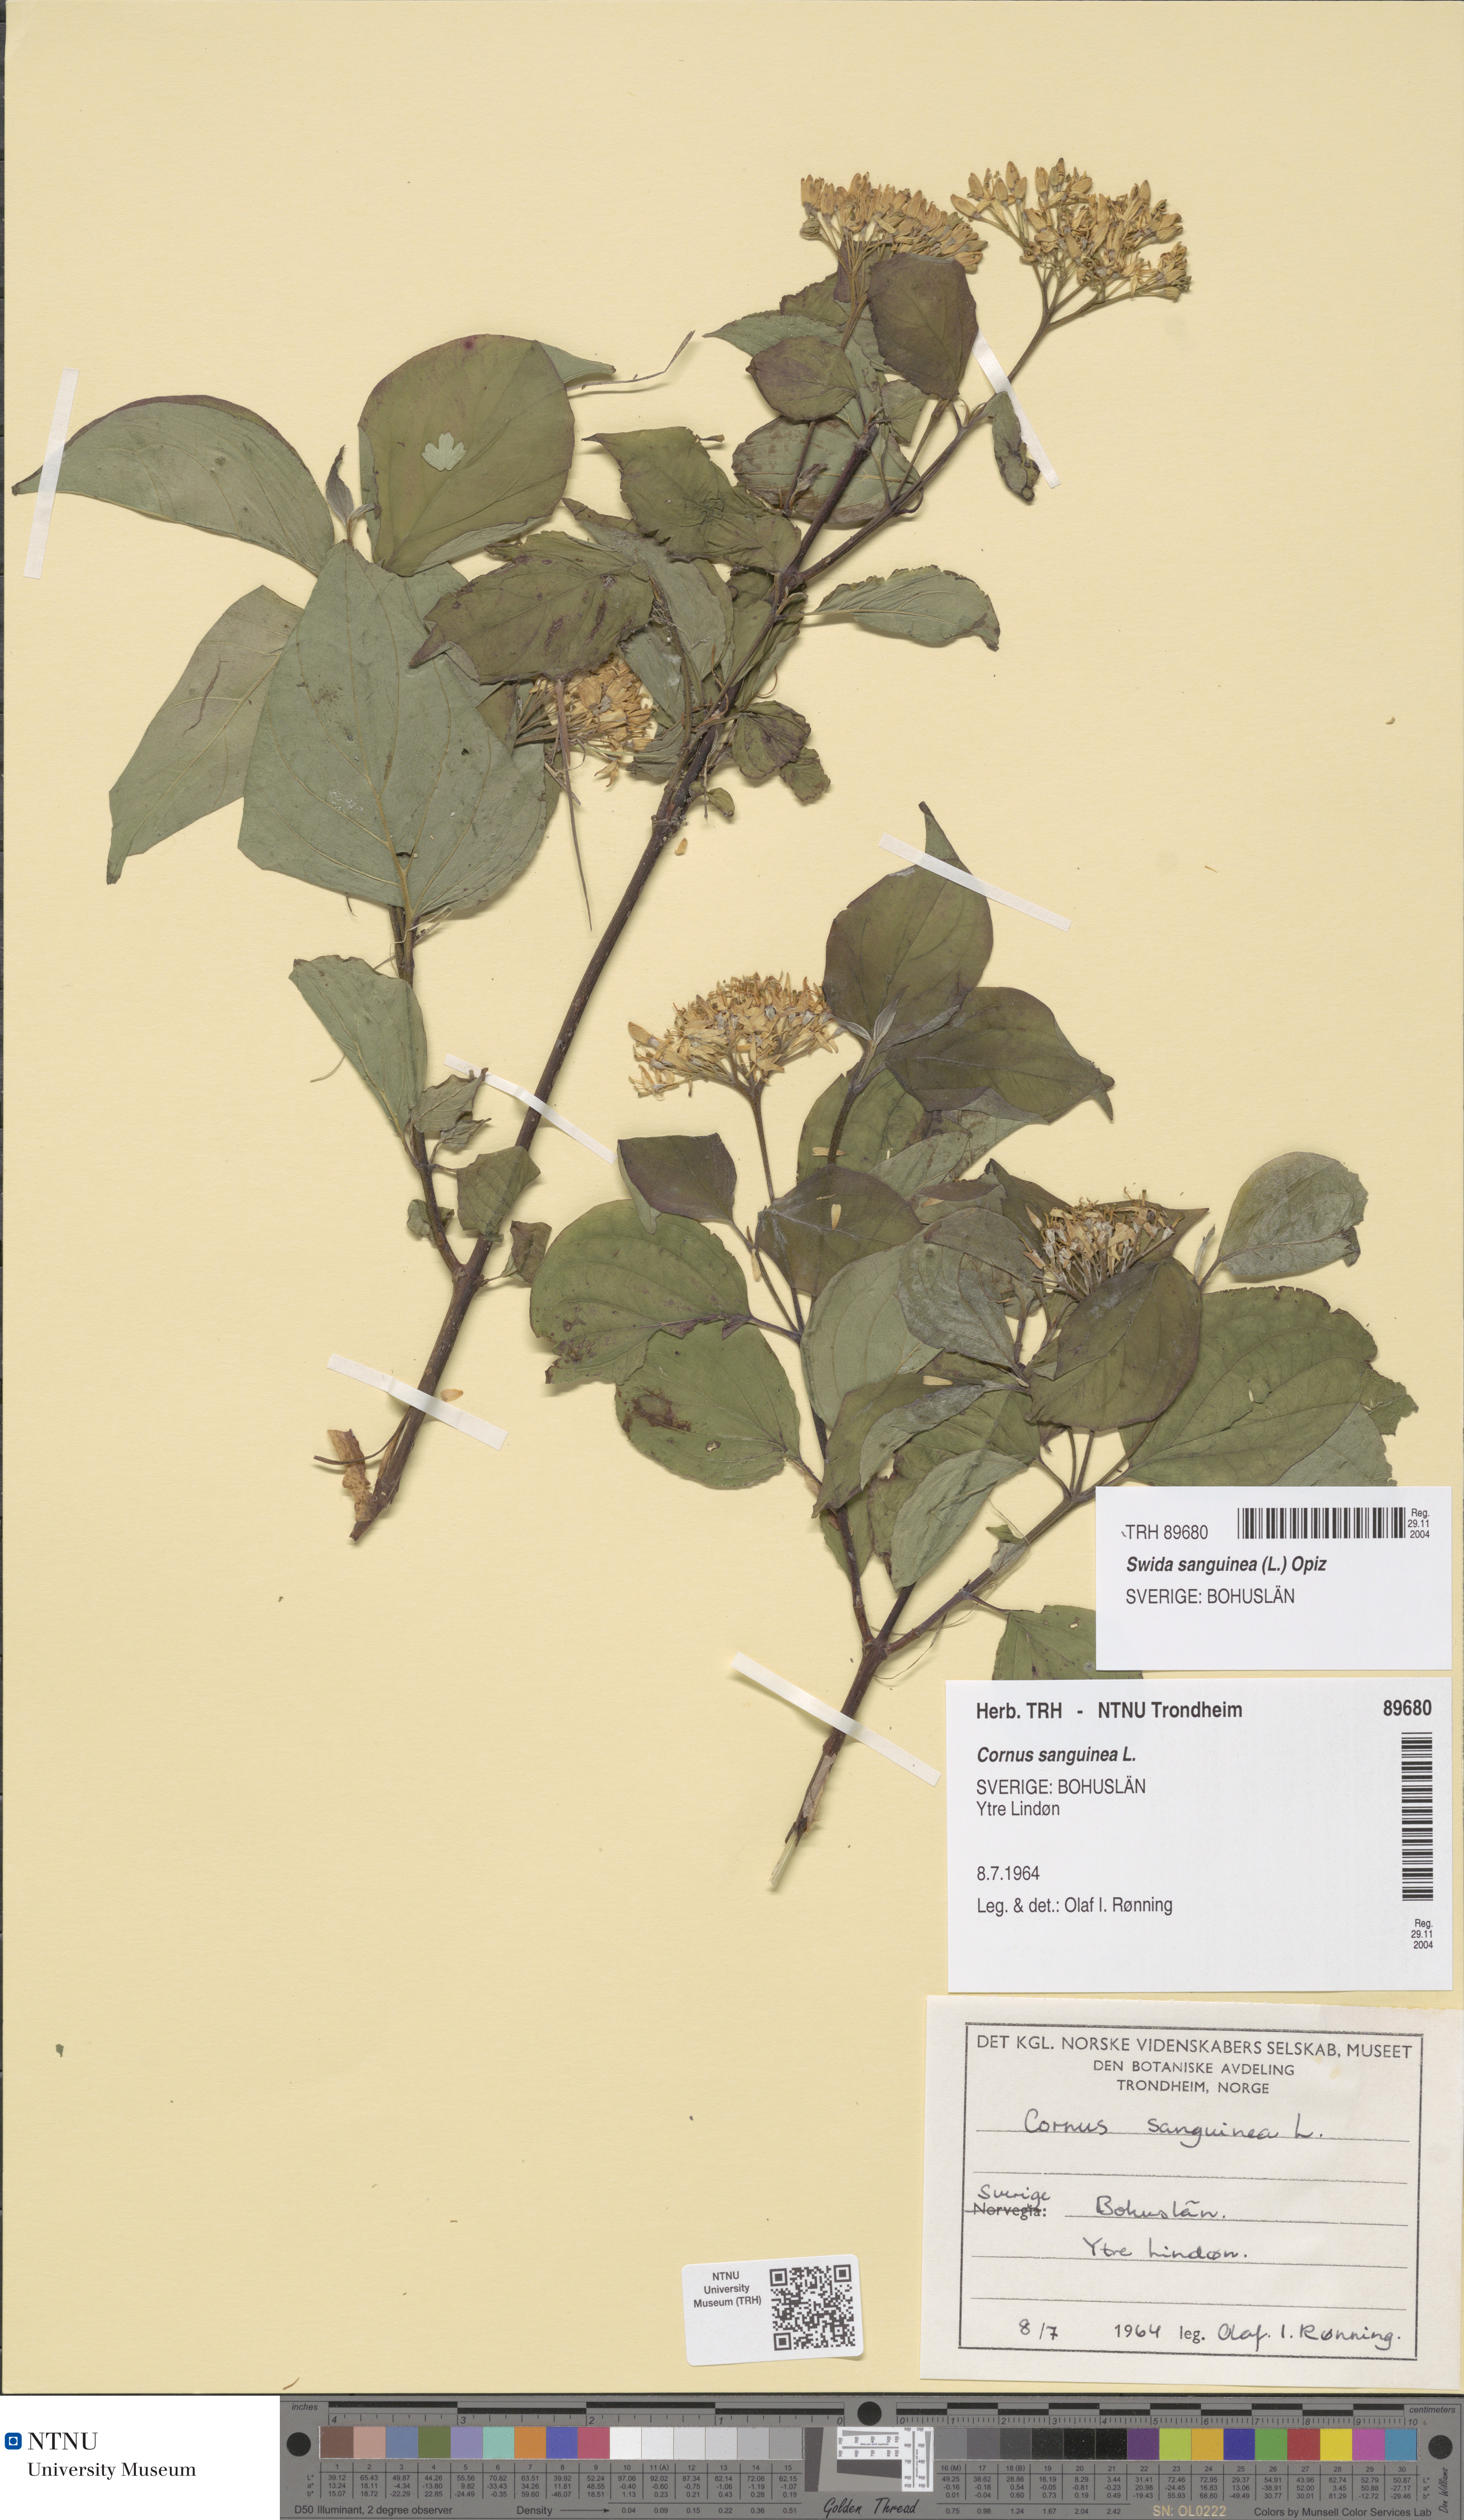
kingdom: Plantae
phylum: Tracheophyta
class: Magnoliopsida
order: Cornales
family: Cornaceae
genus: Cornus
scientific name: Cornus sanguinea
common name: Dogwood
